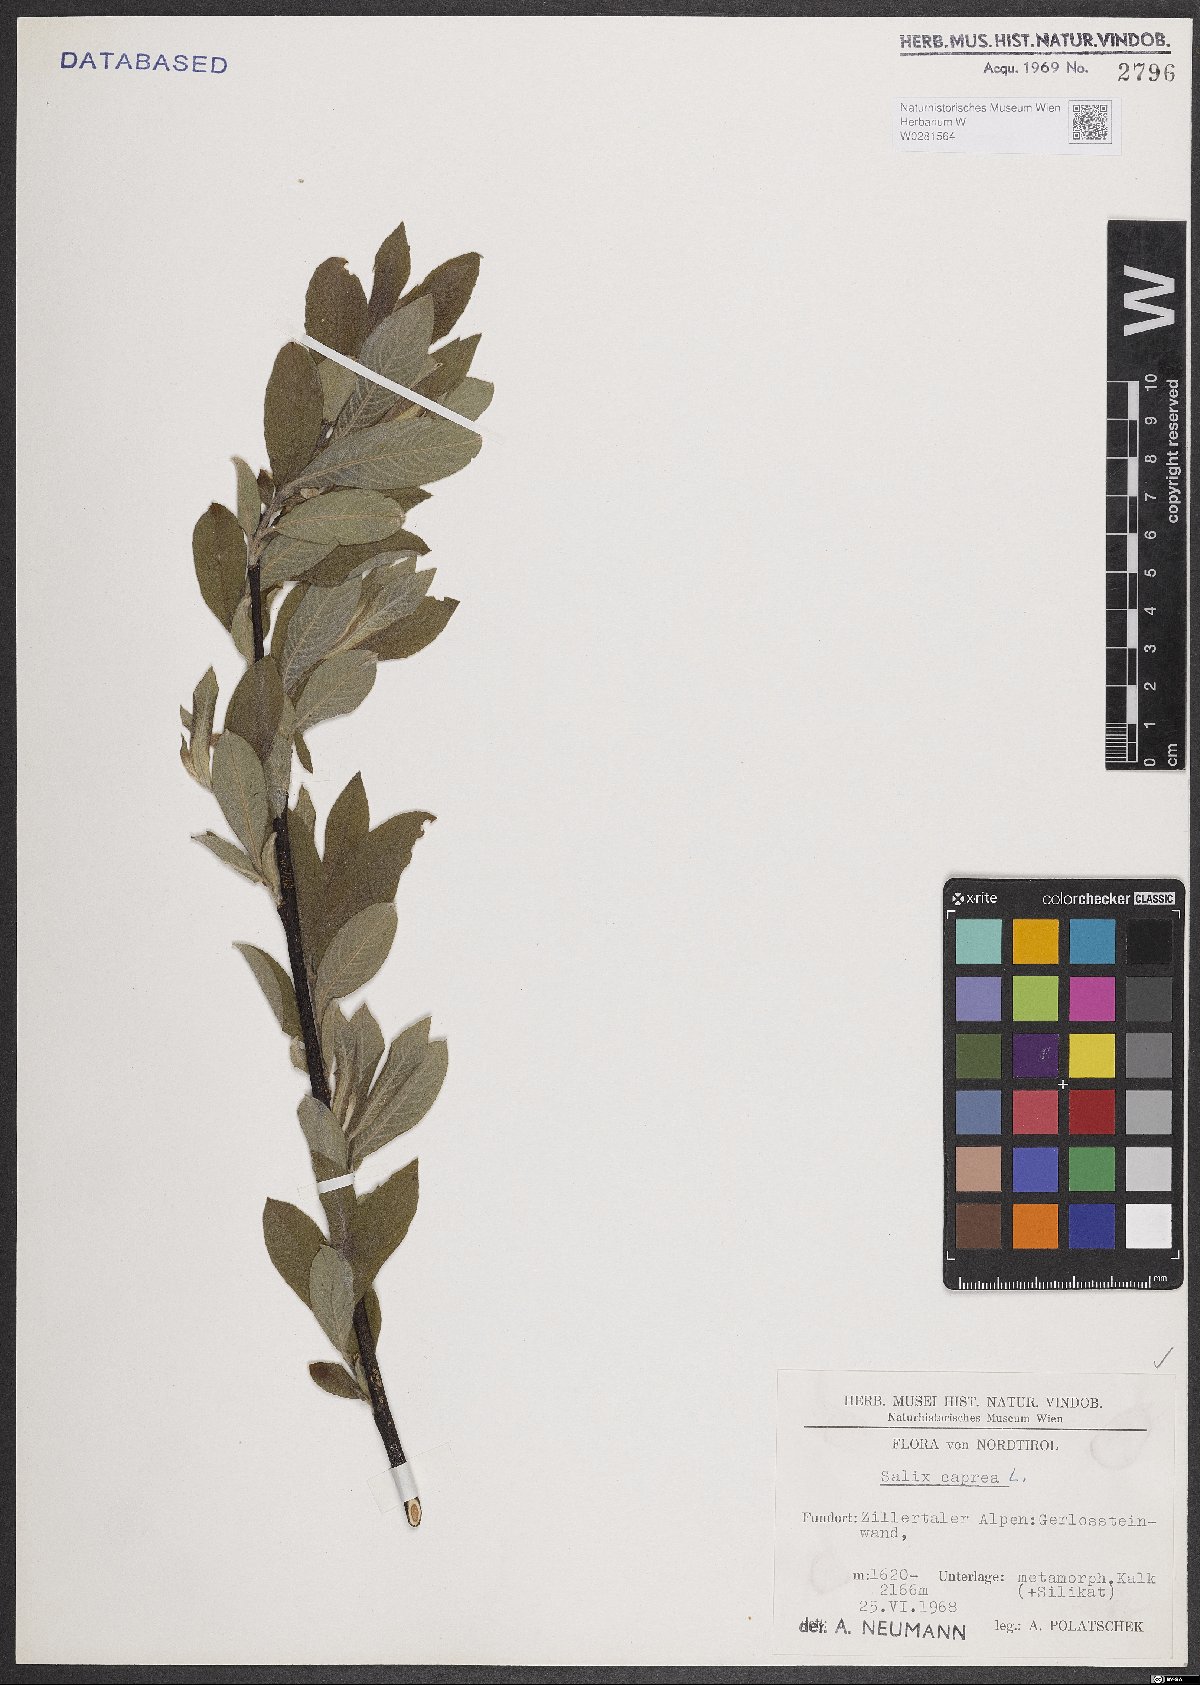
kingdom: Plantae
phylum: Tracheophyta
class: Magnoliopsida
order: Malpighiales
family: Salicaceae
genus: Salix
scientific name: Salix caprea
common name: Goat willow
